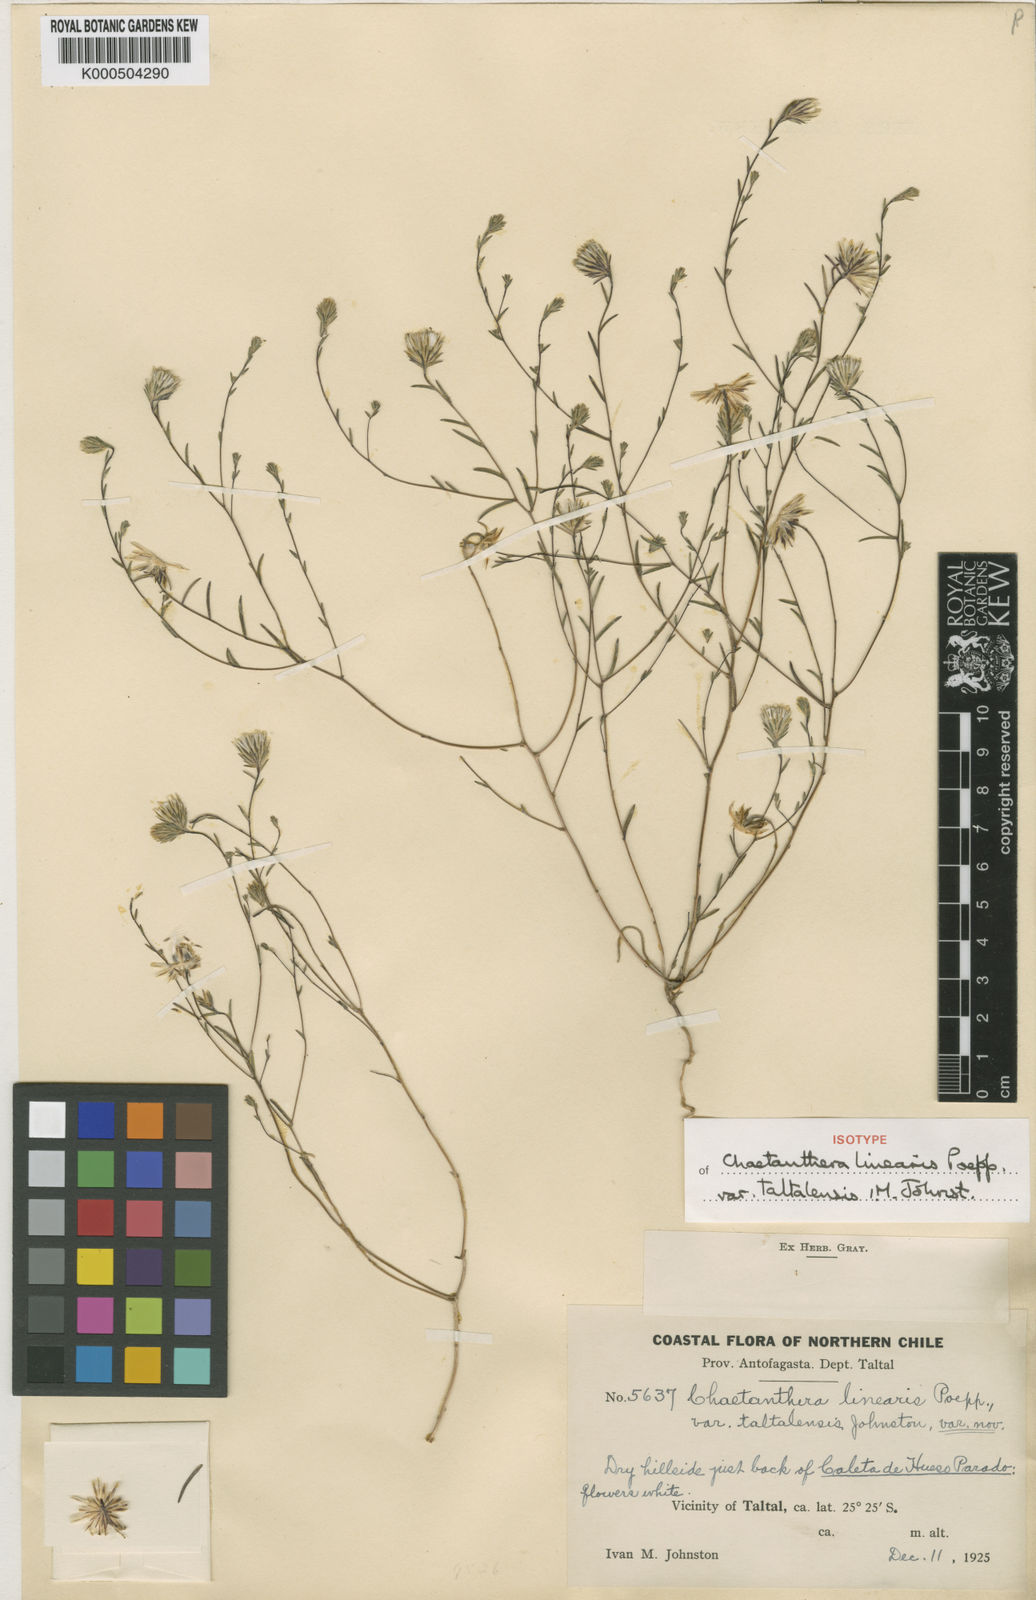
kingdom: Plantae
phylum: Tracheophyta
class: Magnoliopsida
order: Asterales
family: Asteraceae
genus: Chaetanthera
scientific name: Chaetanthera linearis
